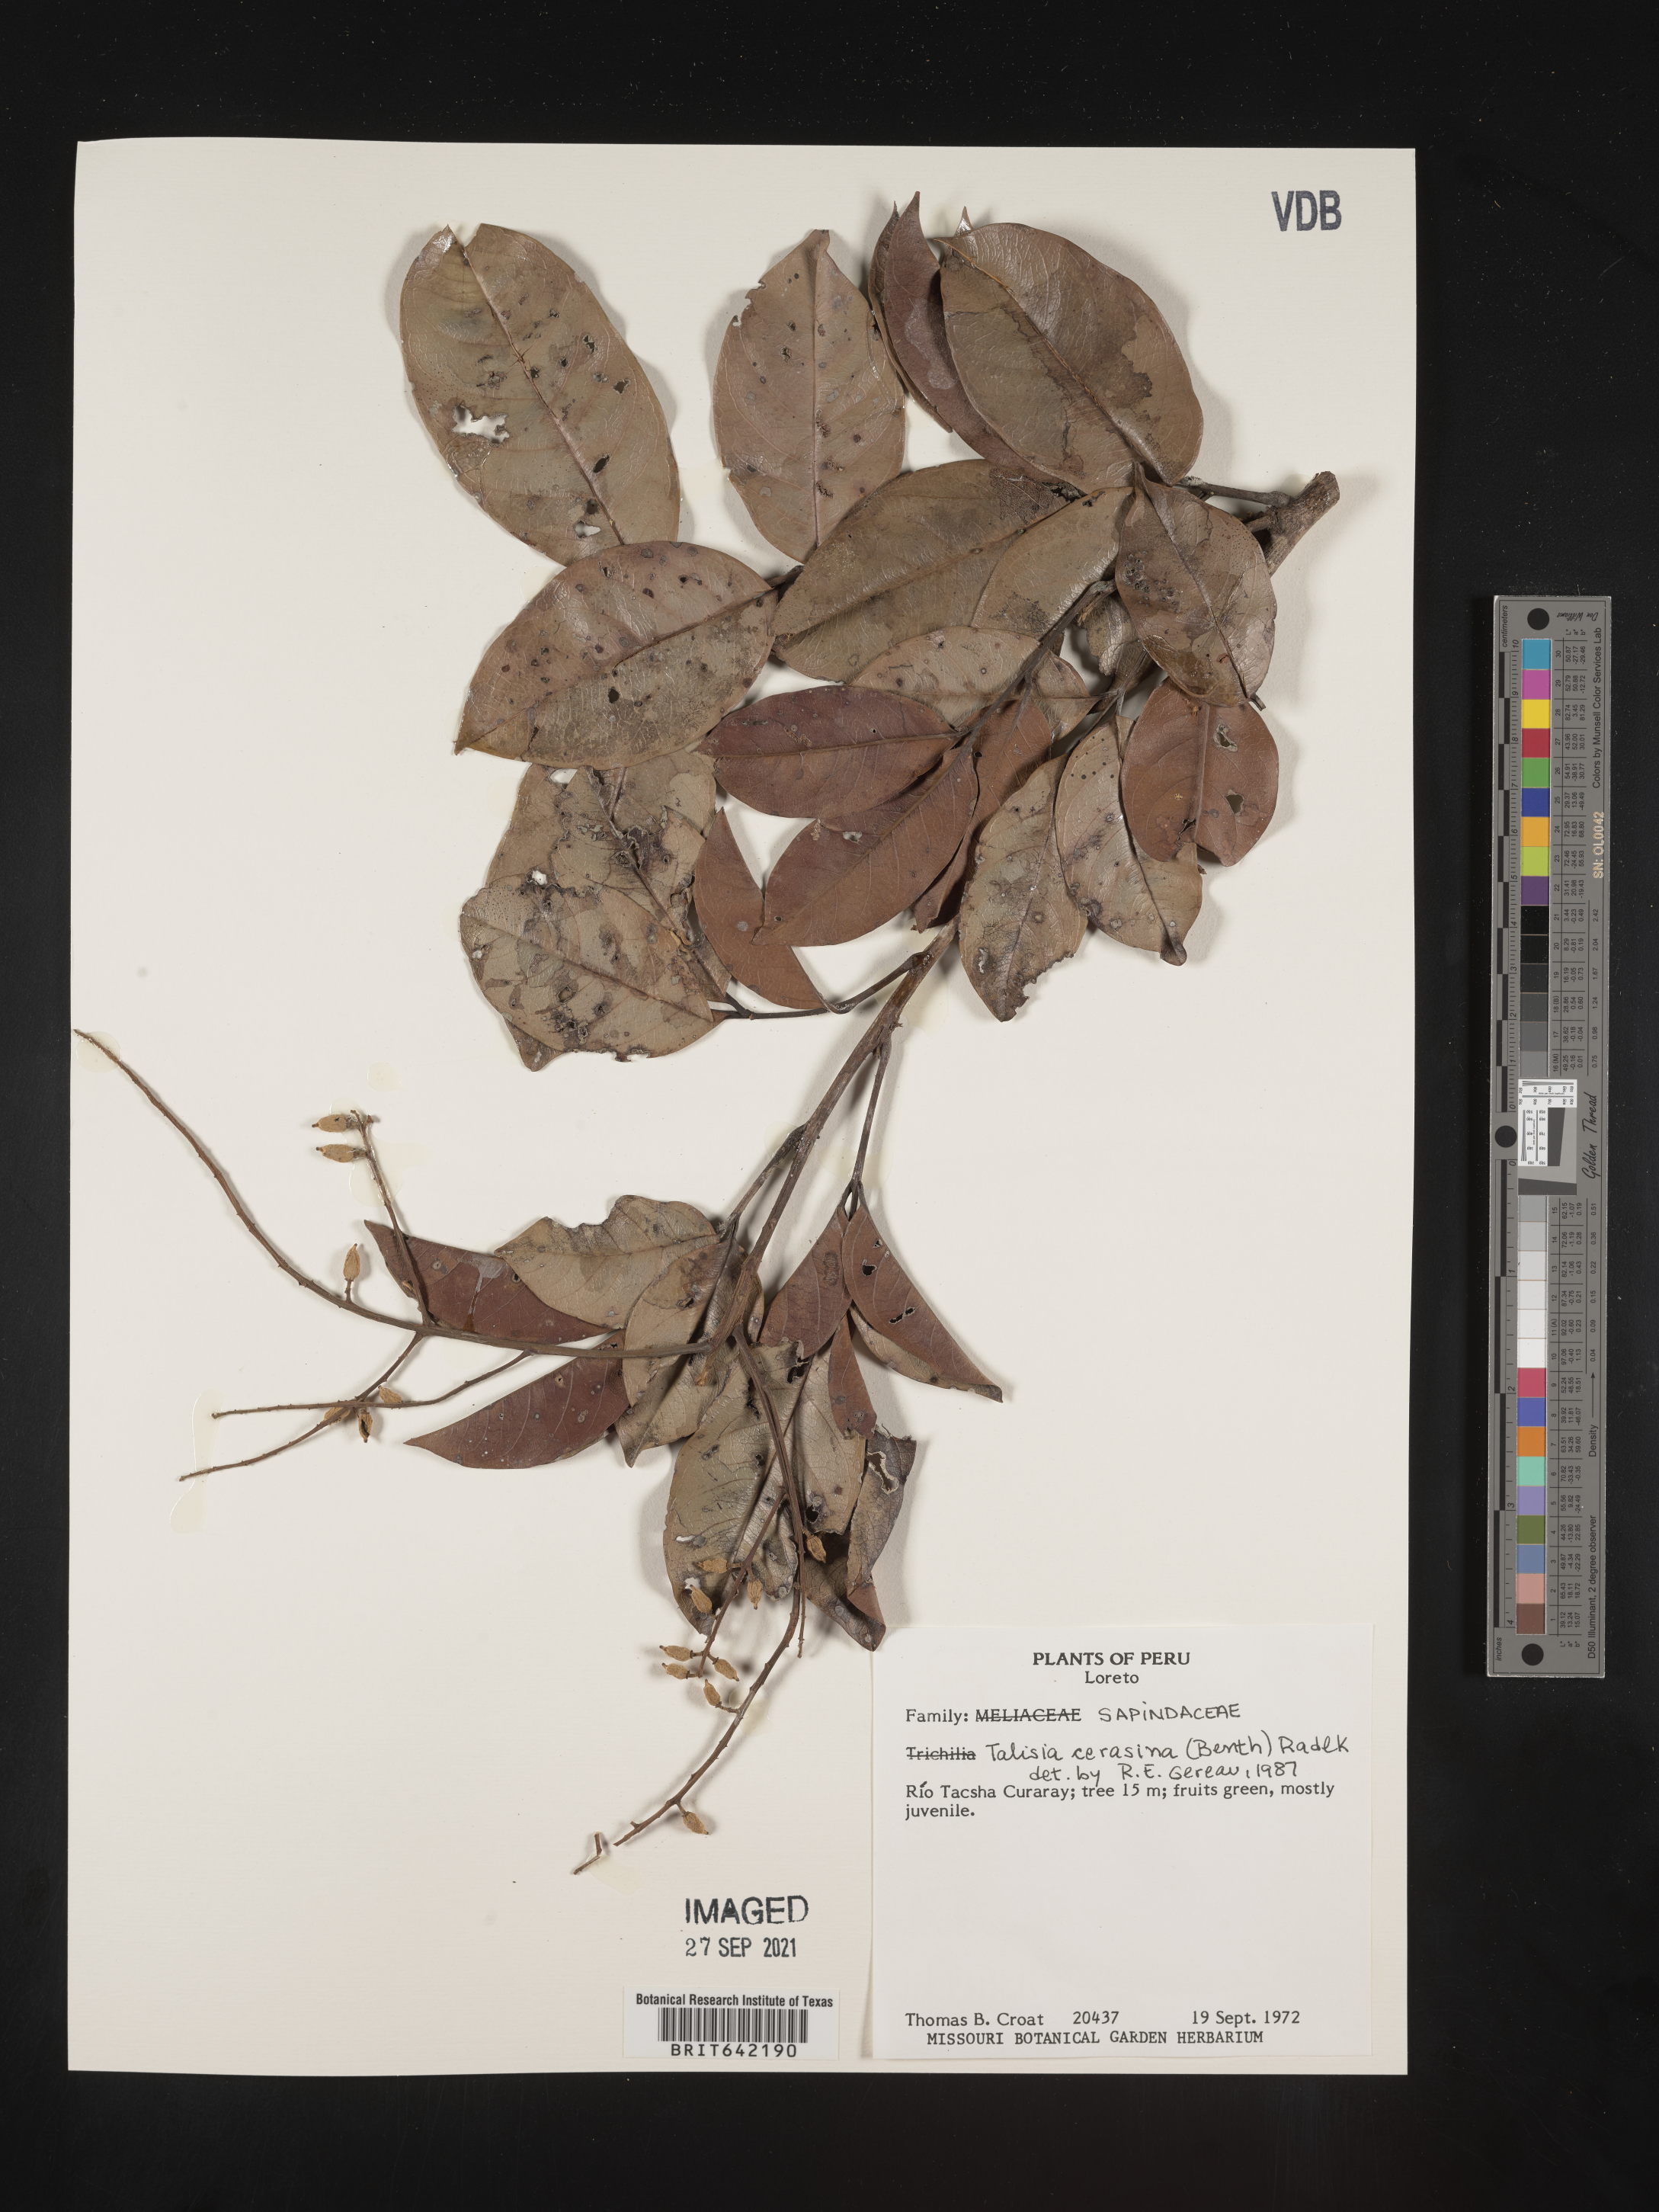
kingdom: Plantae
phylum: Tracheophyta
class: Magnoliopsida
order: Sapindales
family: Sapindaceae
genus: Talisia
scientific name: Talisia
